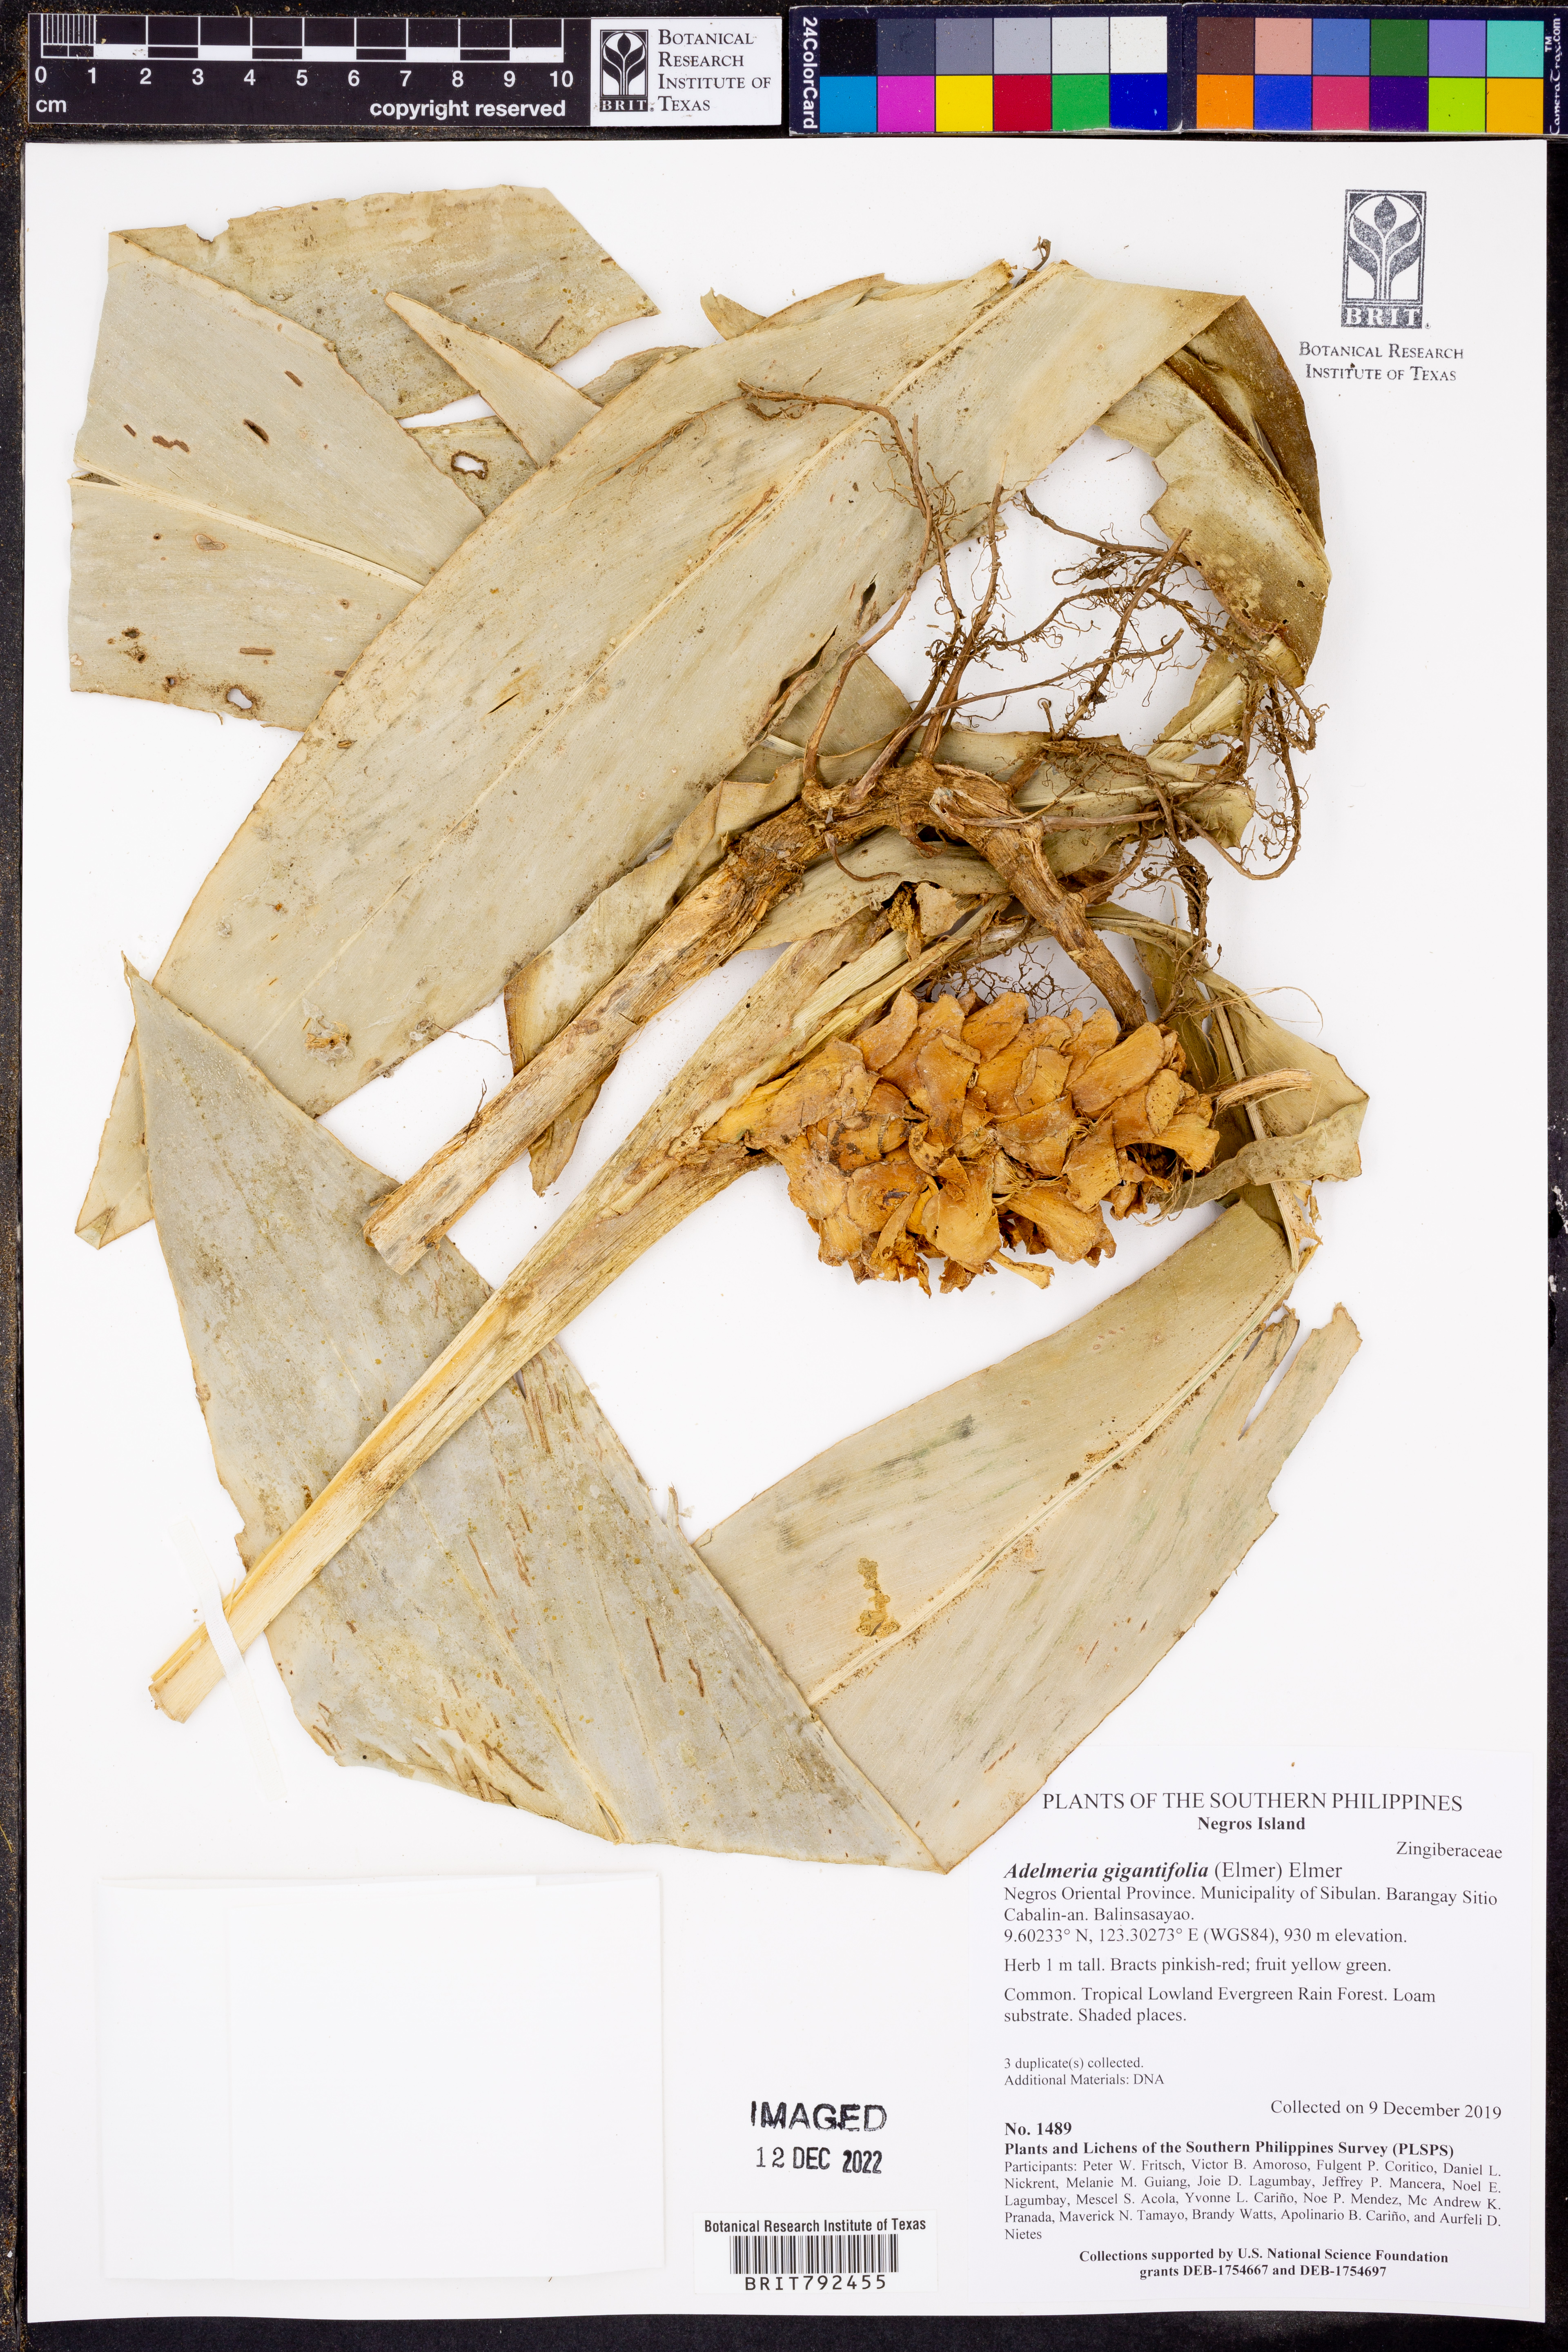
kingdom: Plantae
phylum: Tracheophyta
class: Liliopsida
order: Zingiberales
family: Zingiberaceae
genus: Adelmeria
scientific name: Adelmeria gigantifolia
